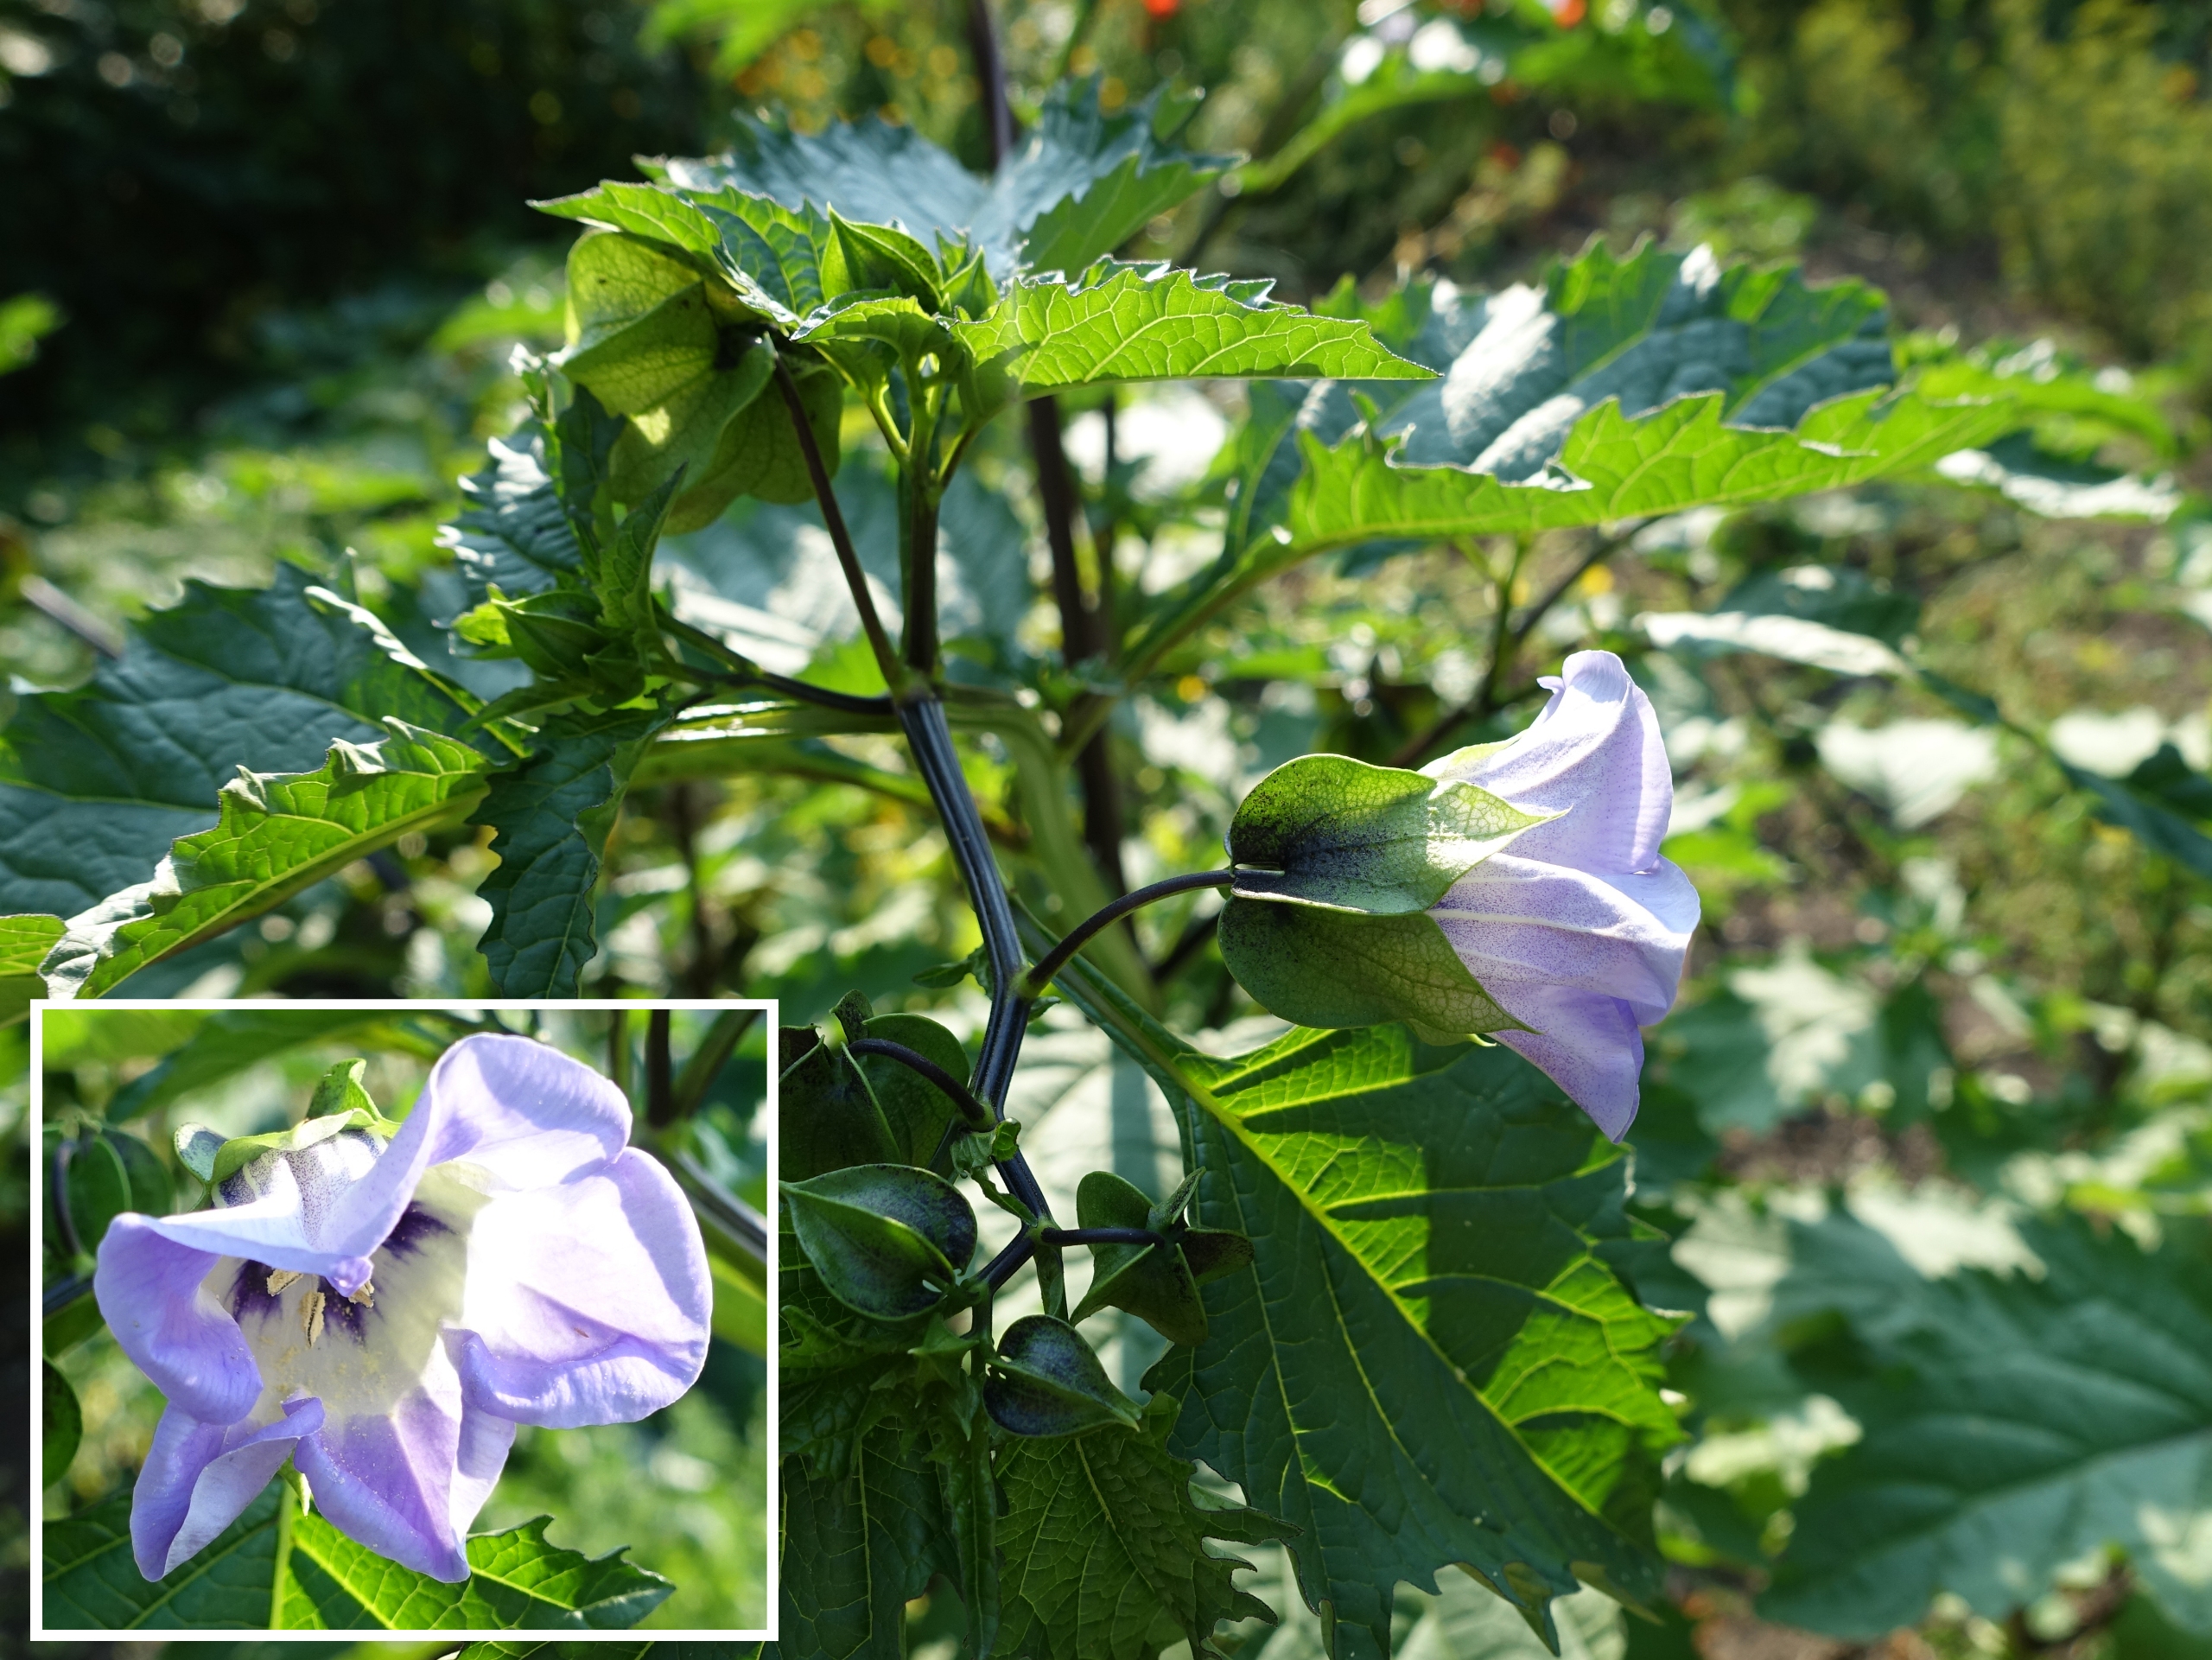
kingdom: Plantae
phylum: Tracheophyta
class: Magnoliopsida
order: Solanales
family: Solanaceae
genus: Nicandra
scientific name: Nicandra physalodes
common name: Kantbæger
